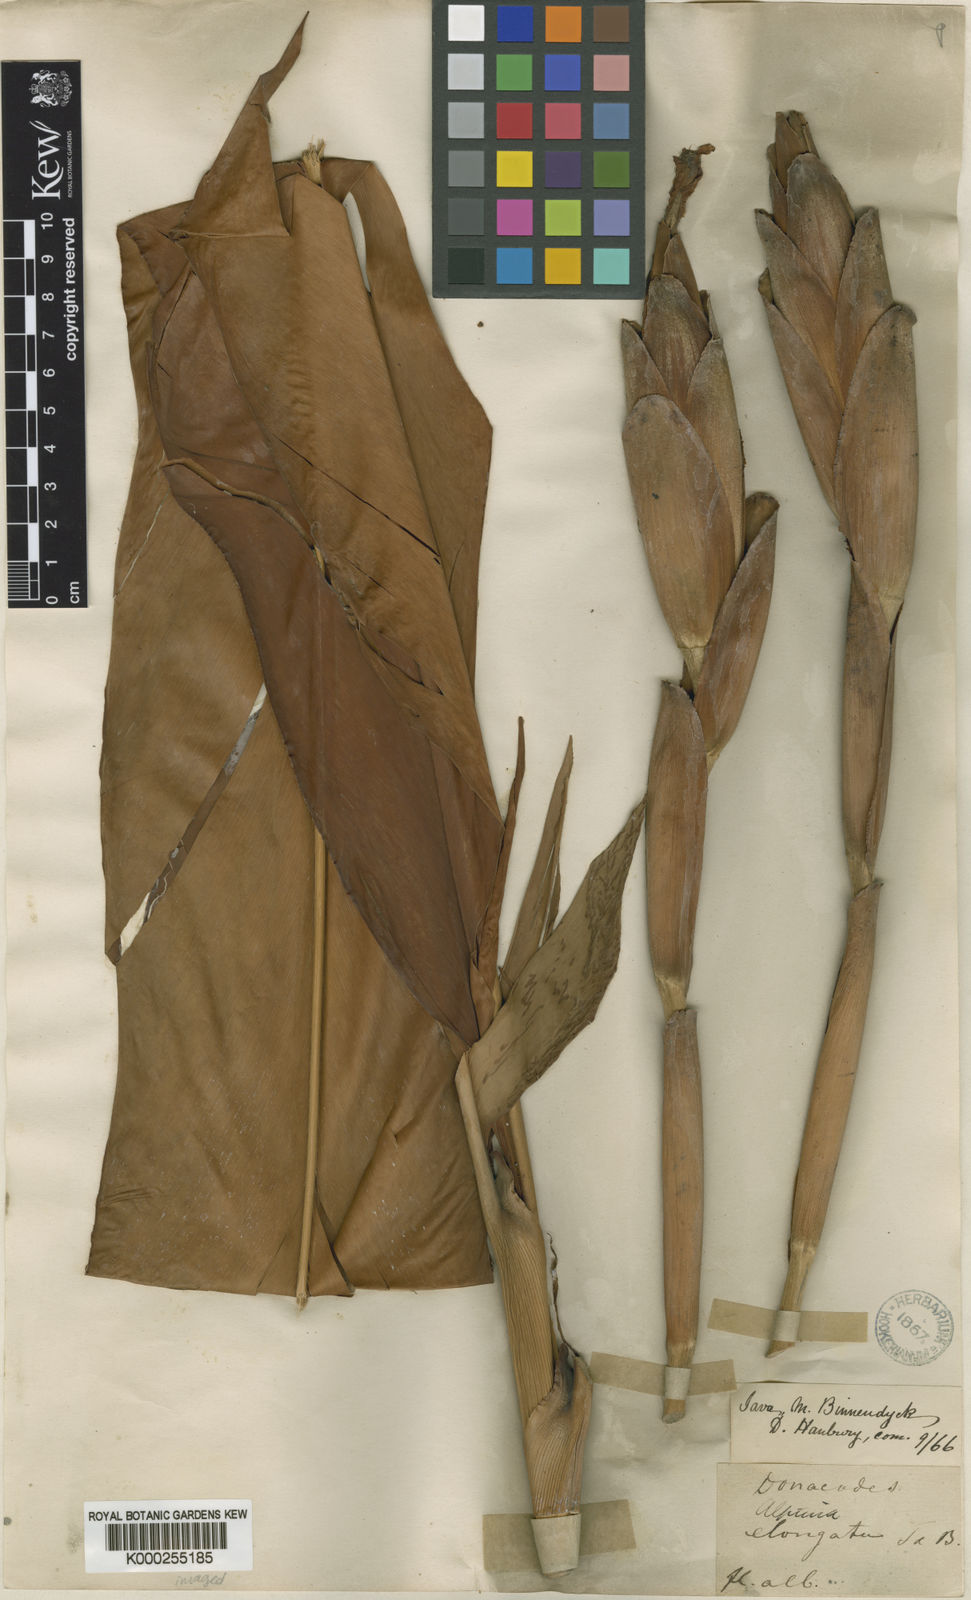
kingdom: Plantae
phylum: Tracheophyta
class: Liliopsida
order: Zingiberales
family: Zingiberaceae
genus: Hornstedtia
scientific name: Hornstedtia elongata
